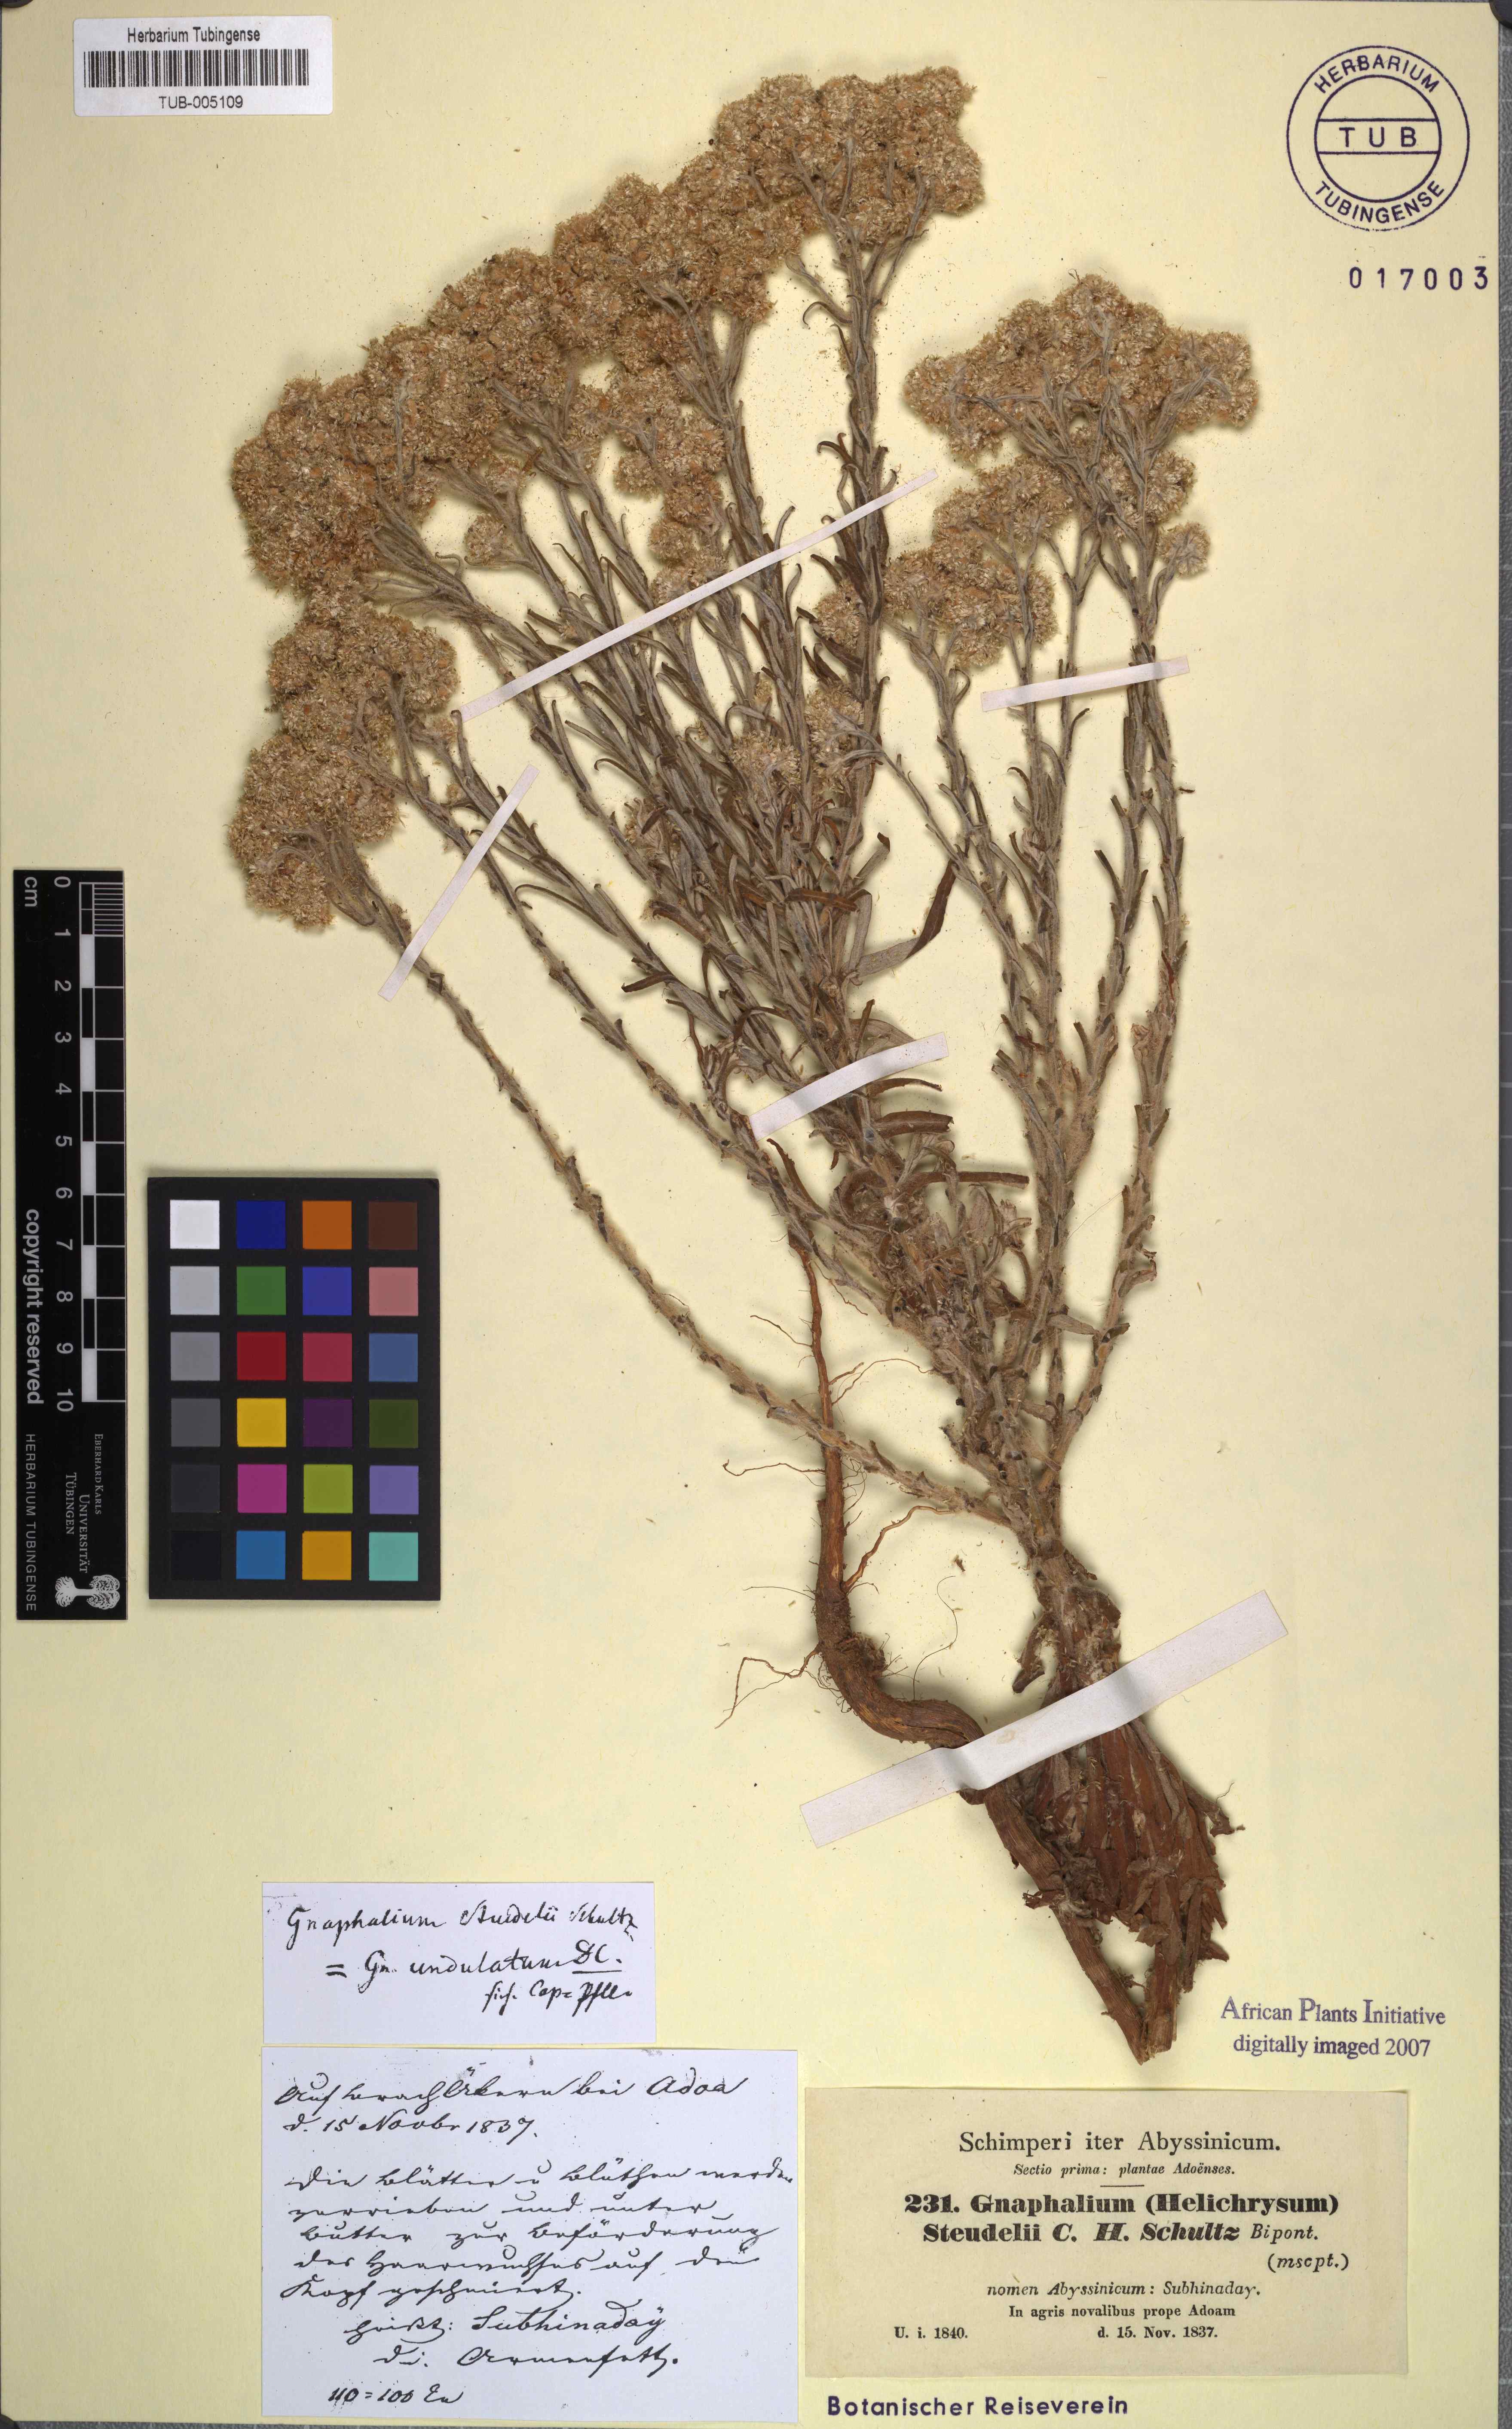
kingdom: Plantae
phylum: Tracheophyta
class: Magnoliopsida
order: Asterales
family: Asteraceae
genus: Pseudognaphalium
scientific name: Pseudognaphalium oligandrum
